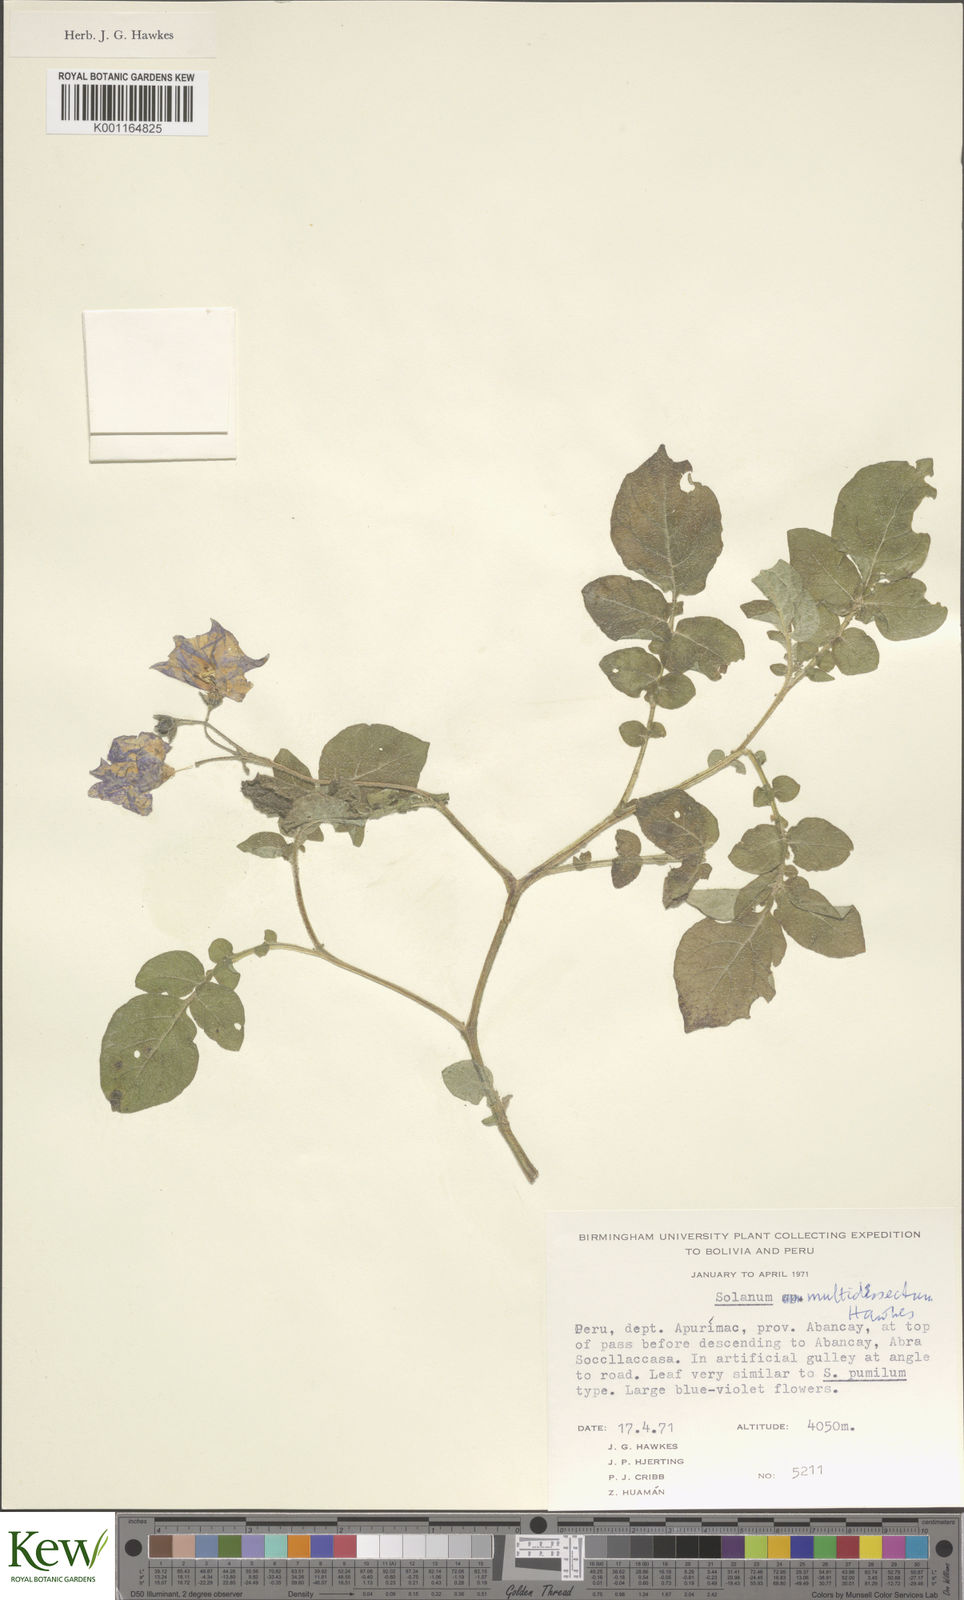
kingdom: Plantae
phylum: Tracheophyta
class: Magnoliopsida
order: Solanales
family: Solanaceae
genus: Solanum
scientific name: Solanum candolleanum
